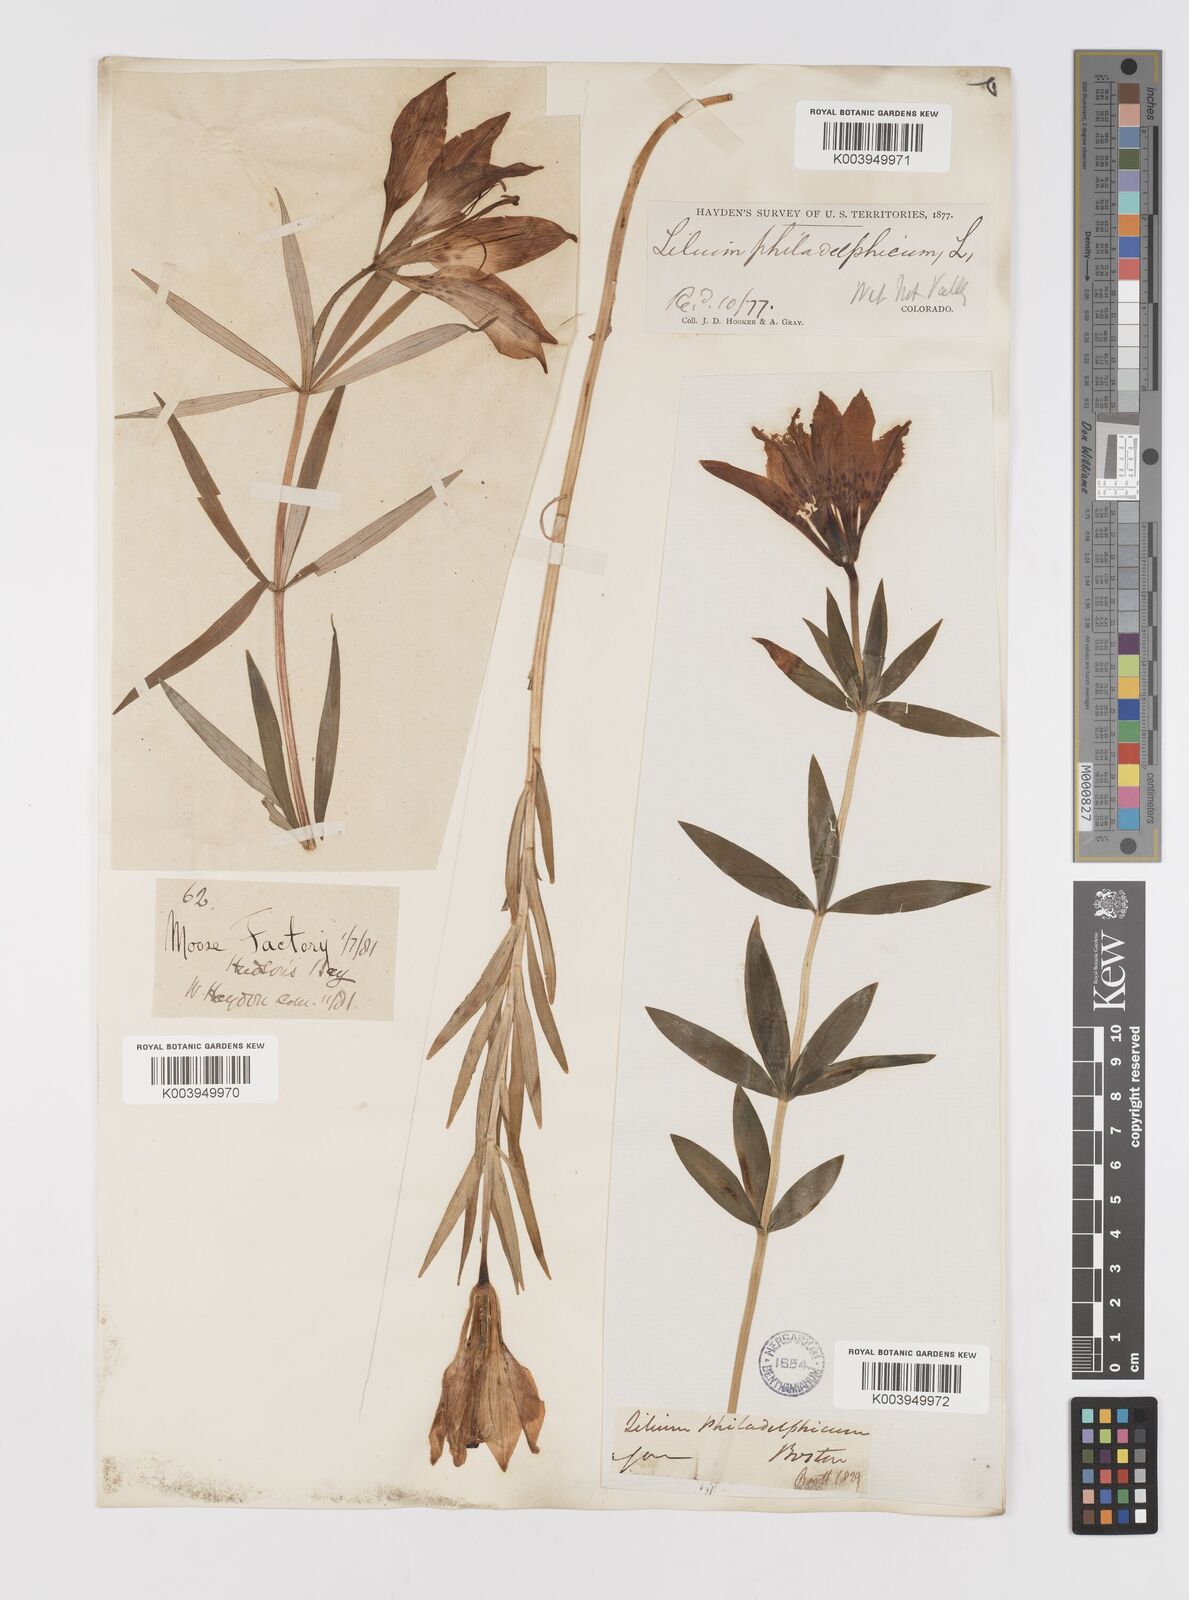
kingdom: Plantae
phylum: Tracheophyta
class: Liliopsida
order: Liliales
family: Liliaceae
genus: Lilium
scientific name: Lilium philadelphicum
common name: Red lily
